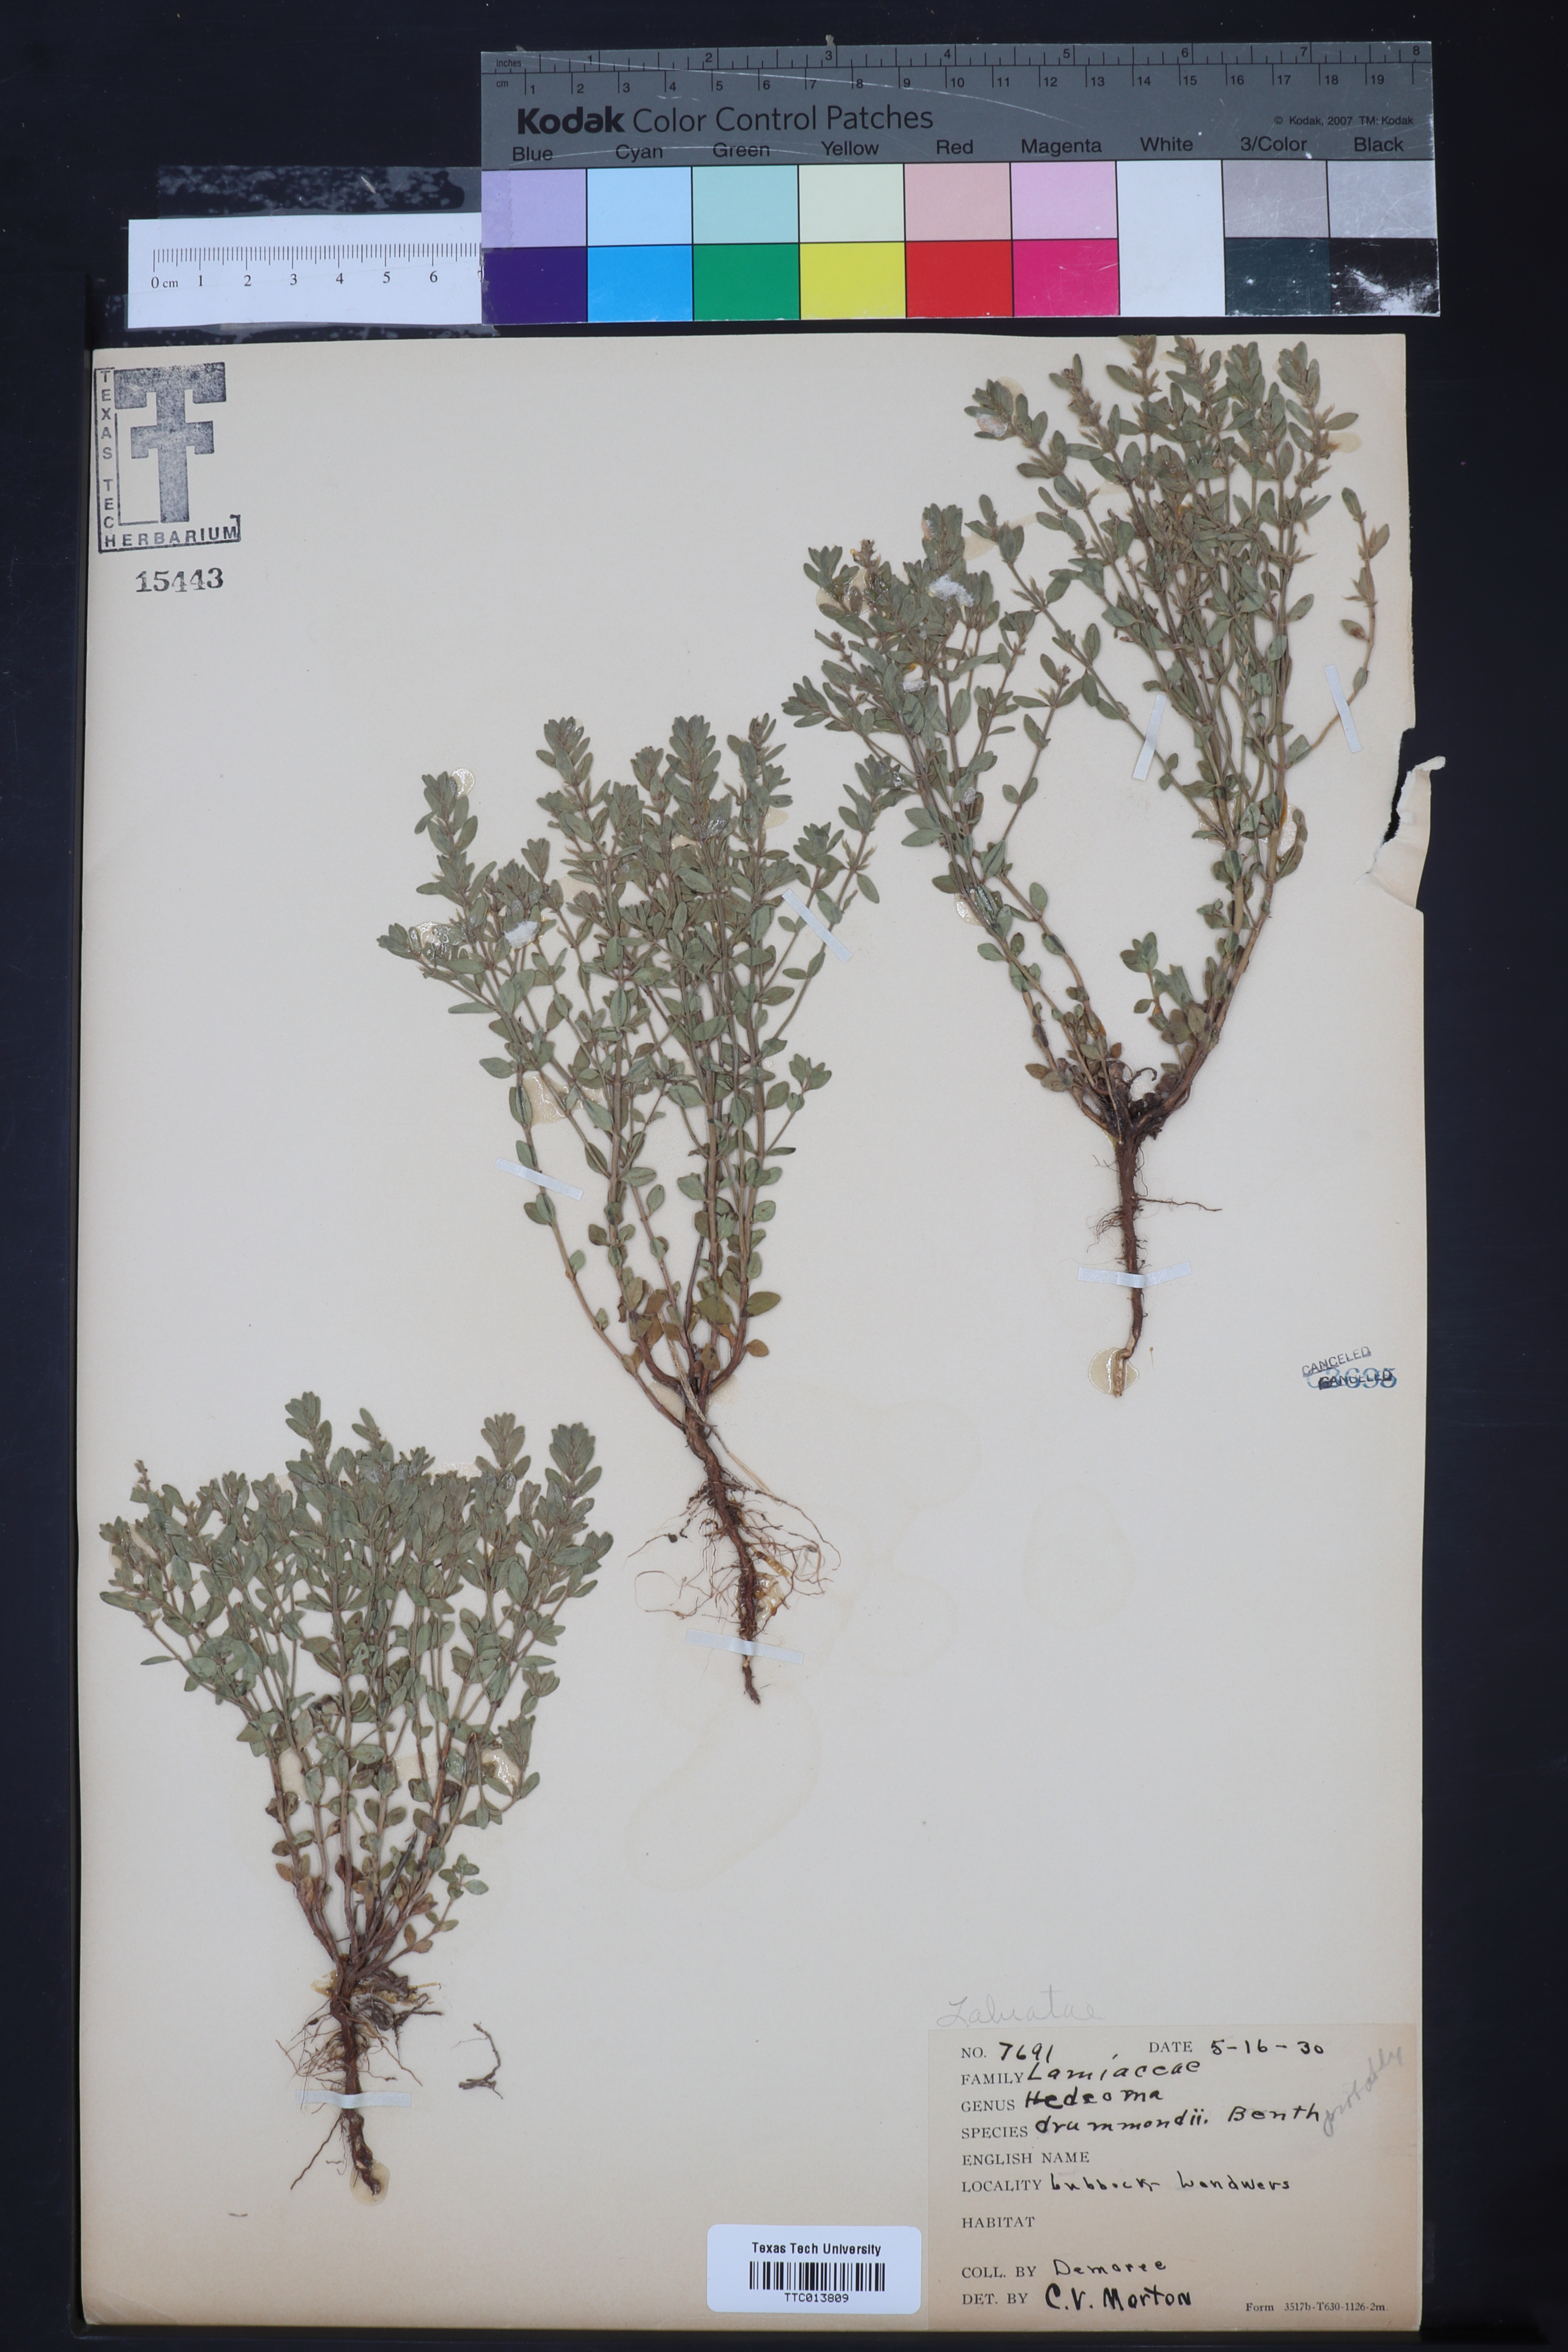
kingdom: Plantae
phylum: Tracheophyta
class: Magnoliopsida
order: Lamiales
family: Lamiaceae
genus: Hedeoma
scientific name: Hedeoma drummondii
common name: New mexico pennyroyal
